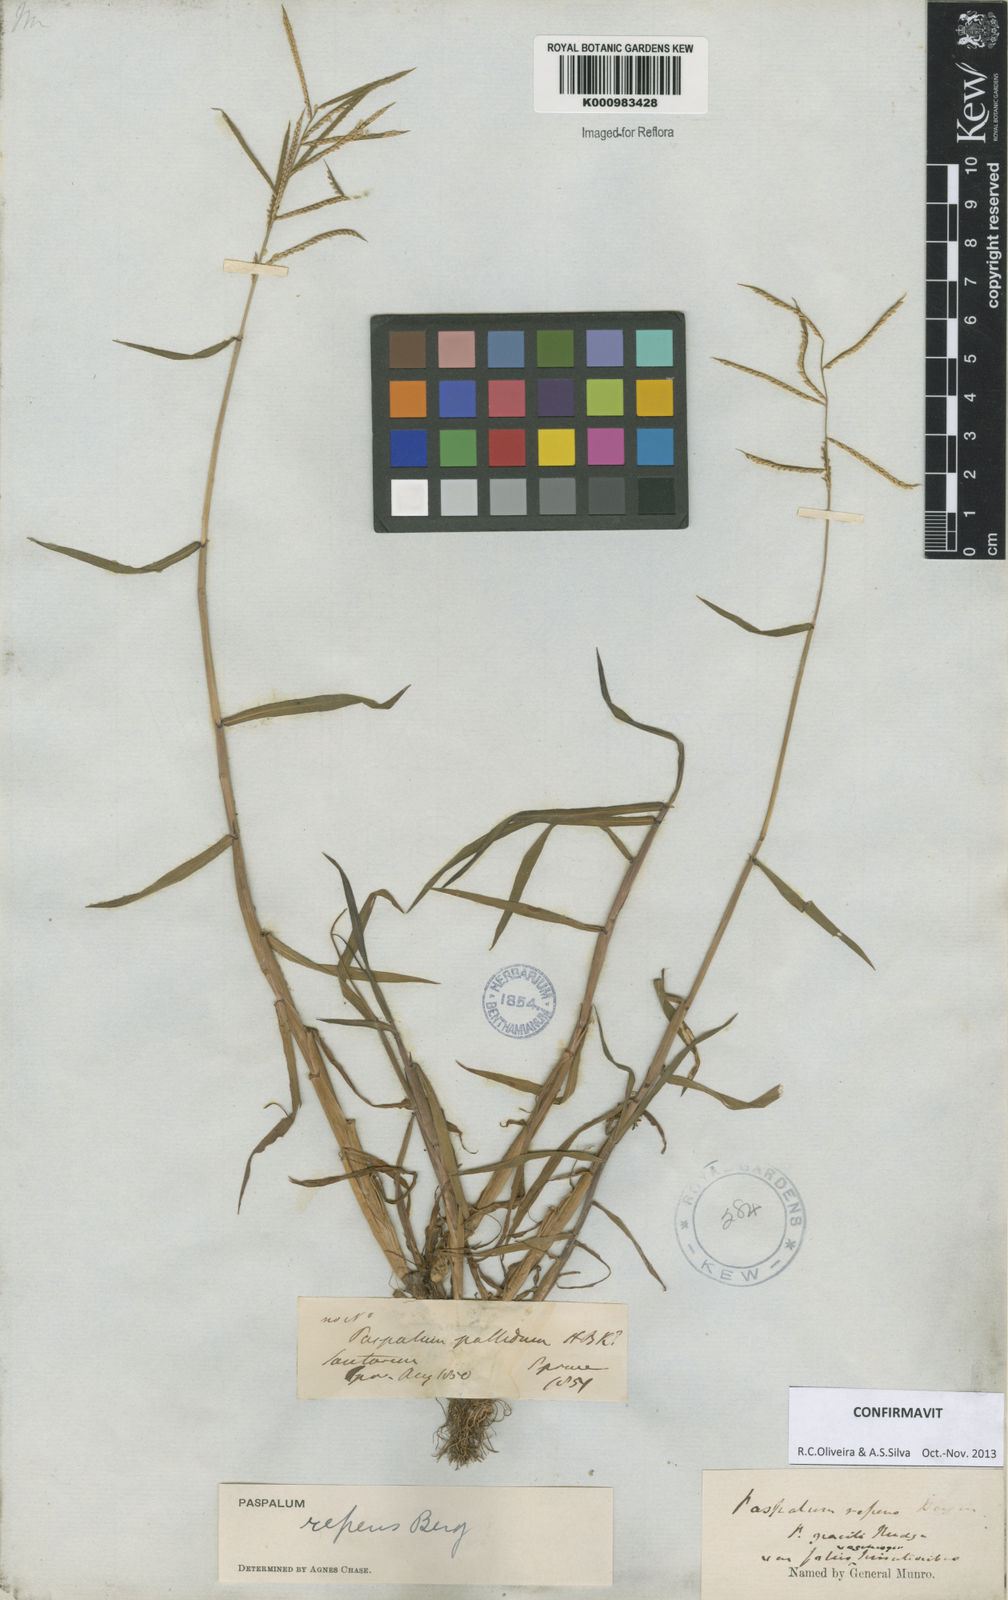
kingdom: Plantae
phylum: Tracheophyta
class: Liliopsida
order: Poales
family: Poaceae
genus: Paspalum
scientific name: Paspalum repens
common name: Water paspalum
